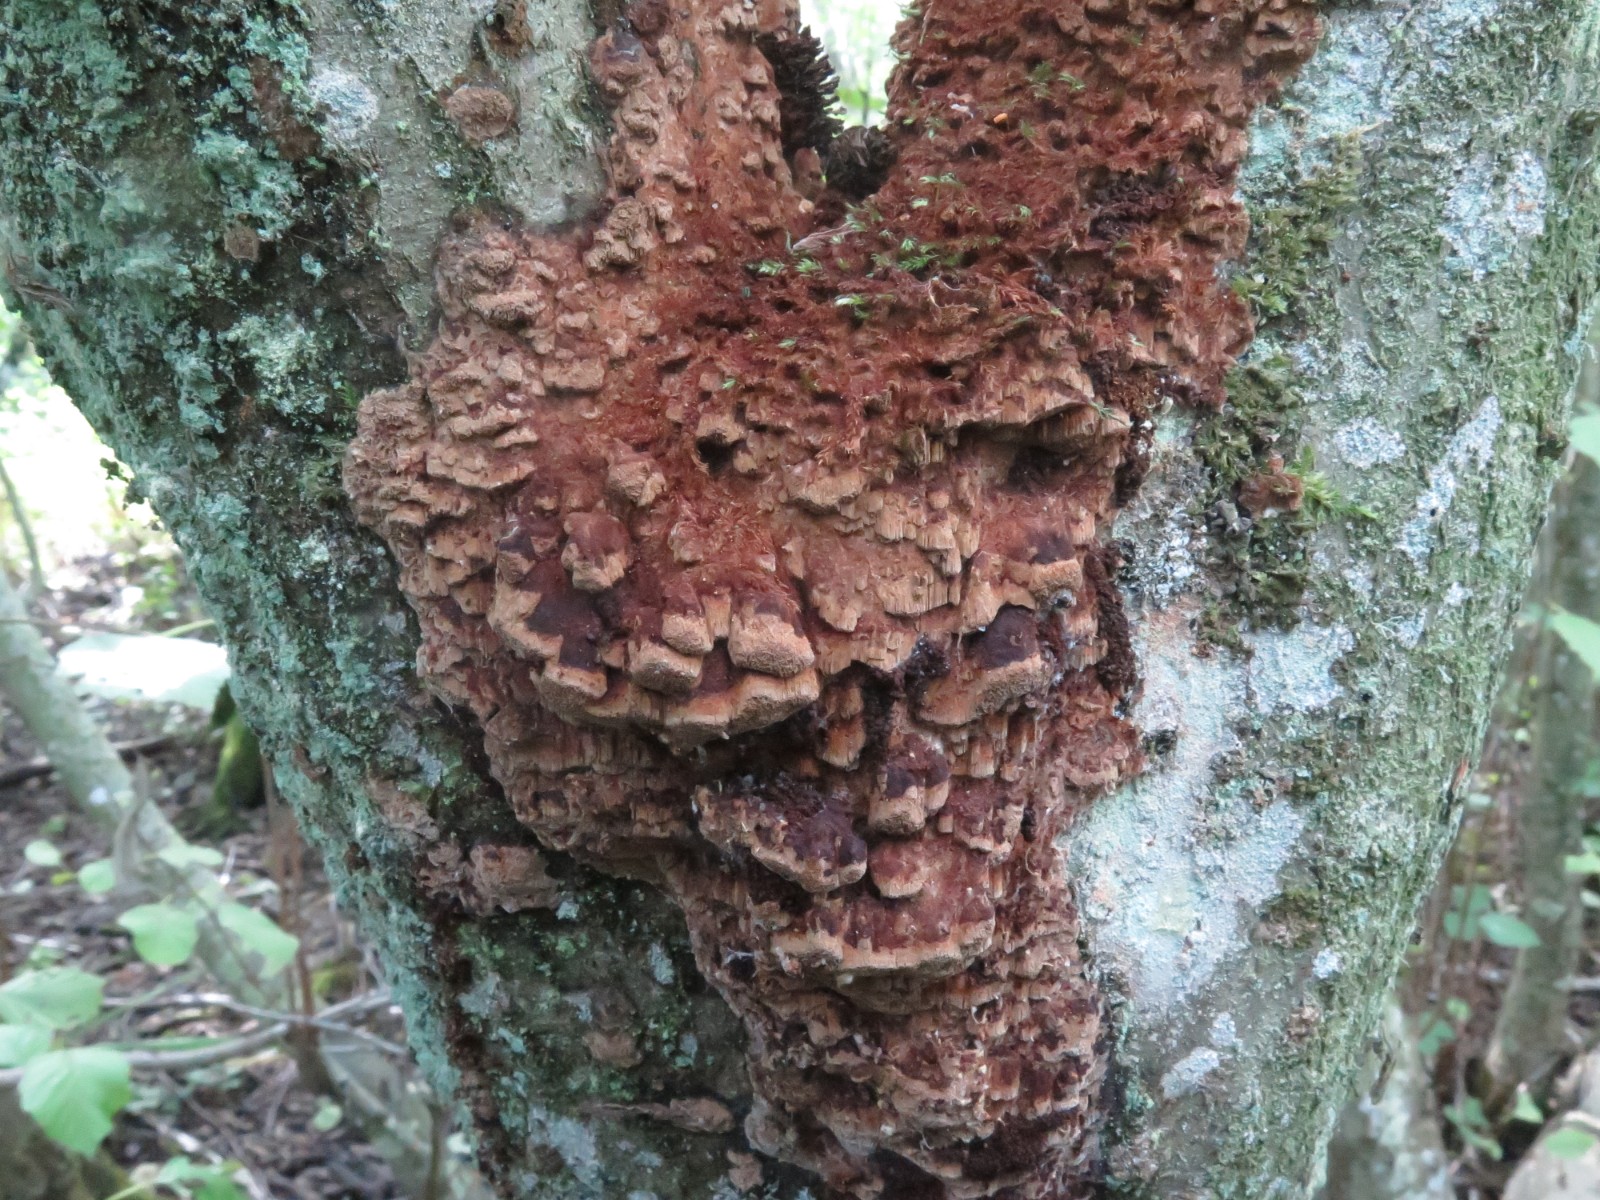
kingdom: Fungi
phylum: Basidiomycota
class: Agaricomycetes
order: Hymenochaetales
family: Hymenochaetaceae
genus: Fuscoporia
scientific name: Fuscoporia ferrea
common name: skorpe-ildporesvamp
